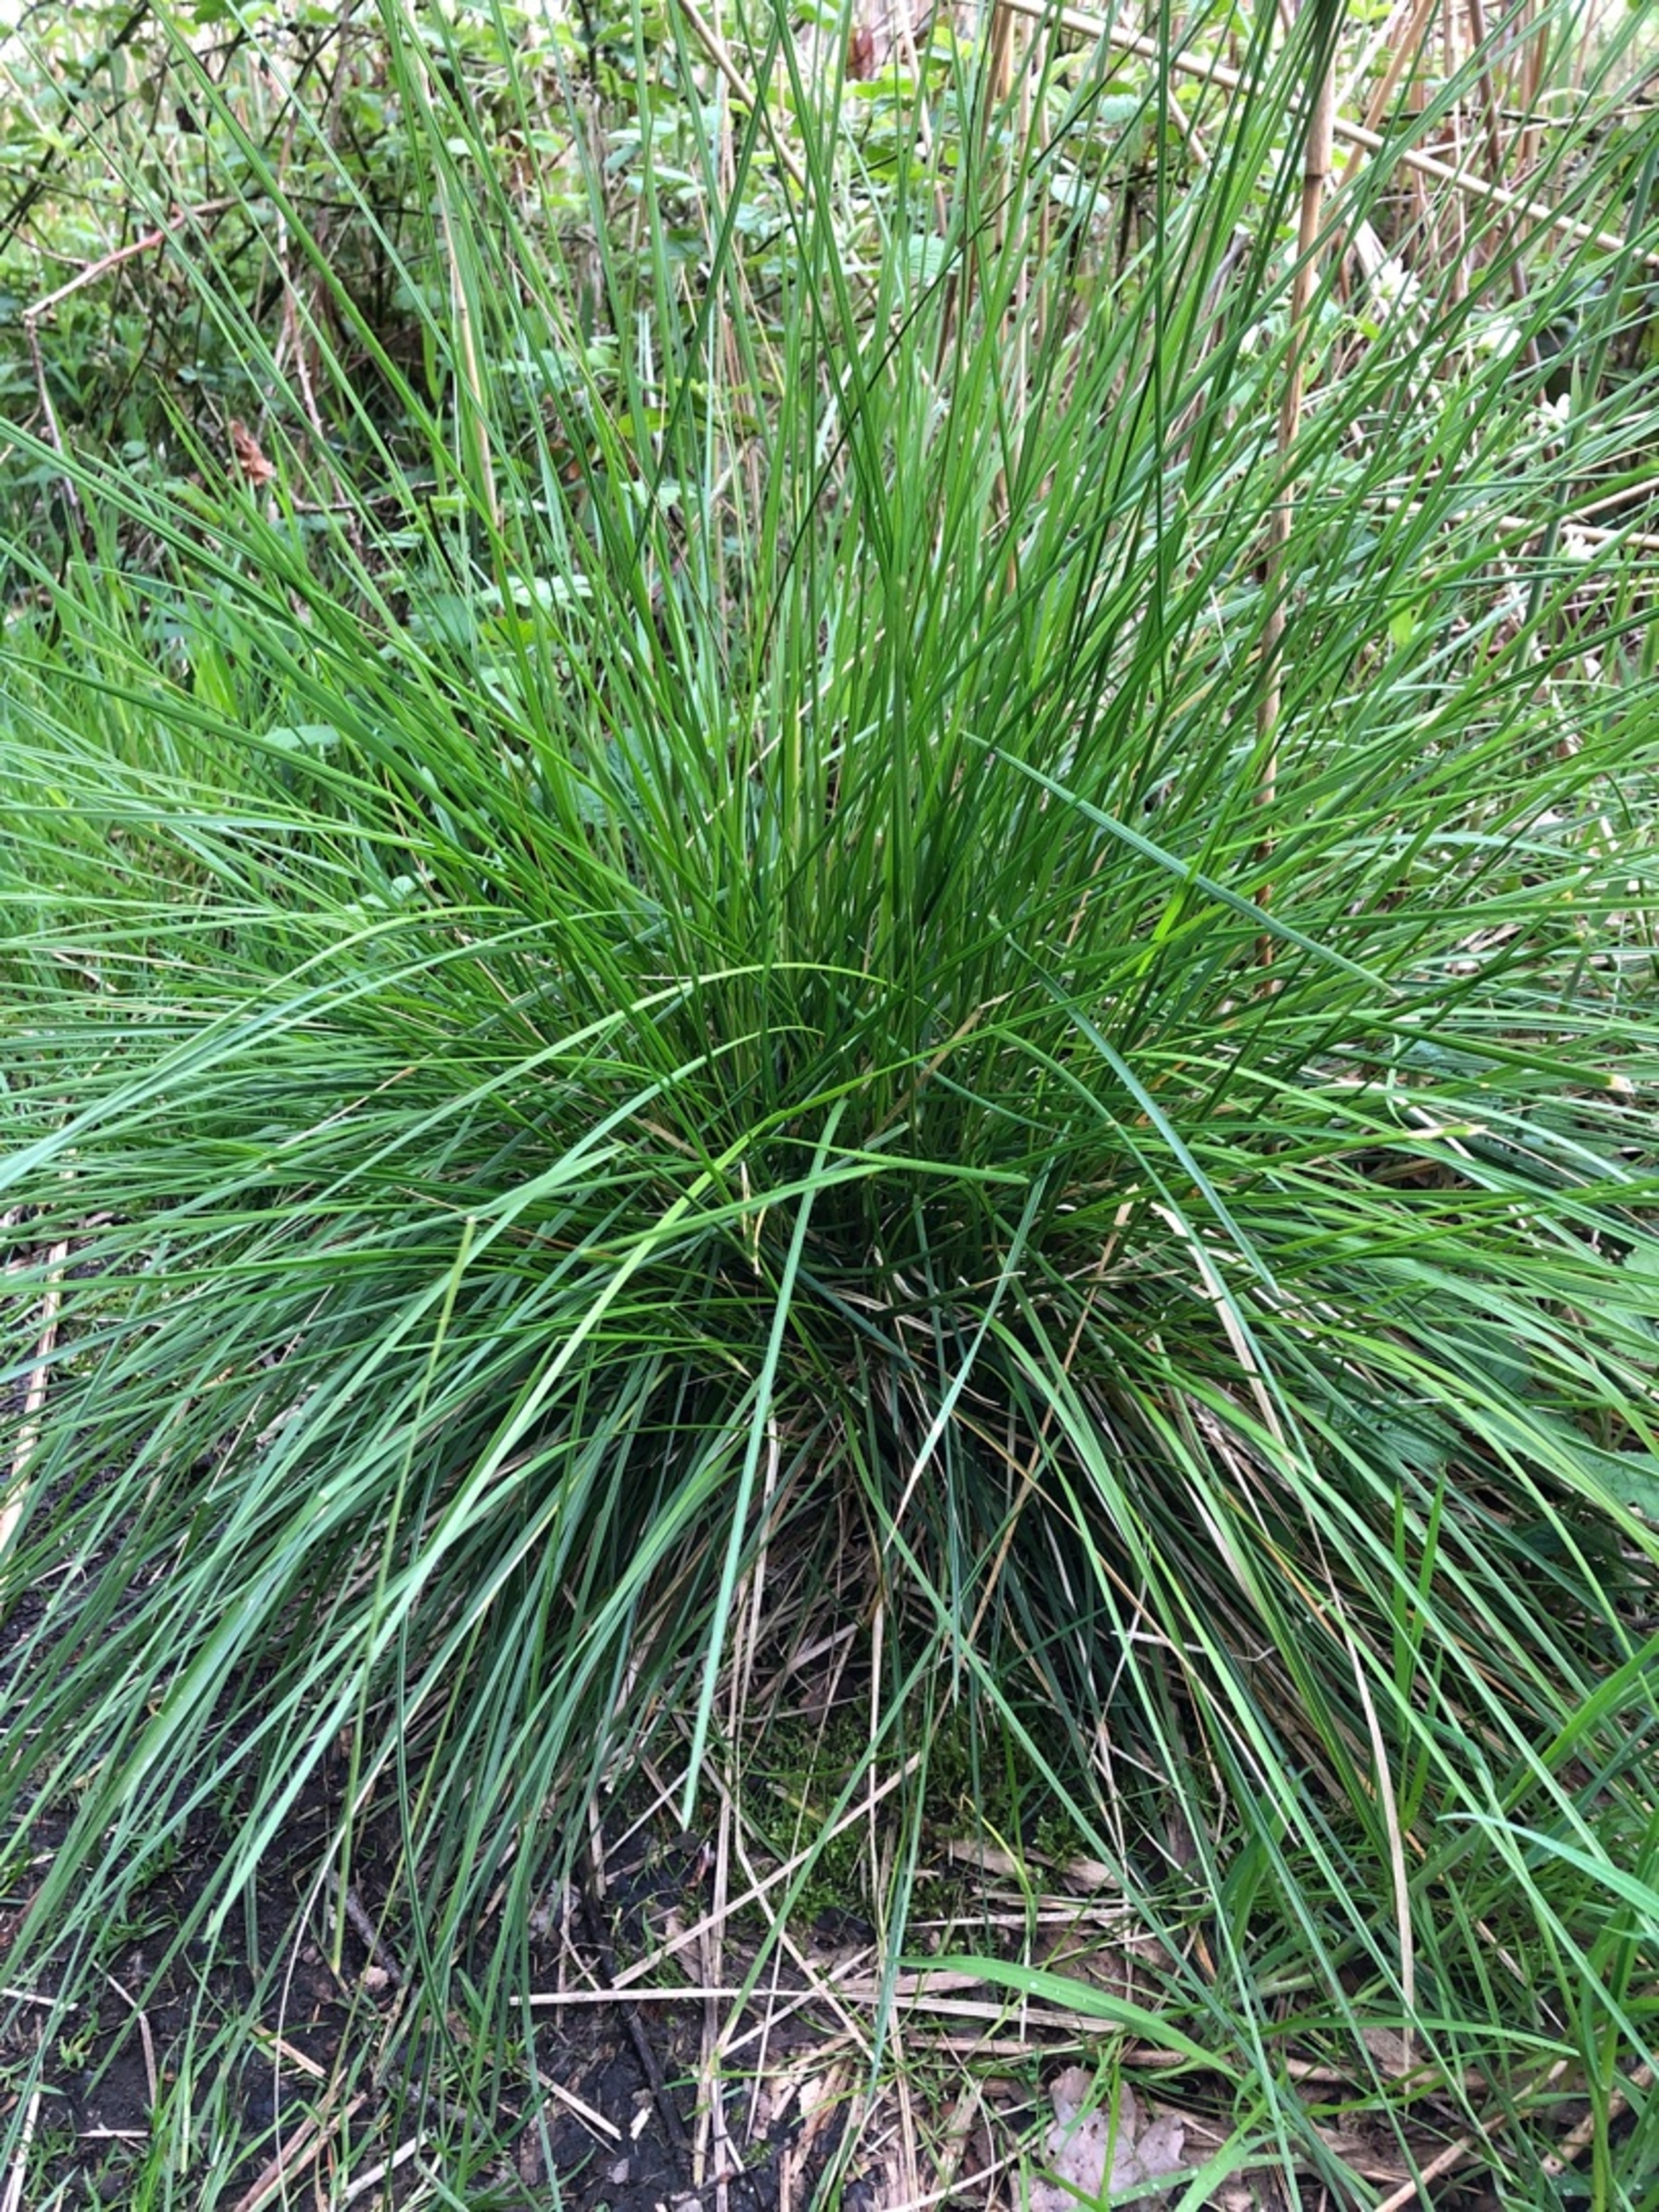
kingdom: Plantae
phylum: Tracheophyta
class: Liliopsida
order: Poales
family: Poaceae
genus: Deschampsia
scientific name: Deschampsia cespitosa
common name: Mose-bunke
